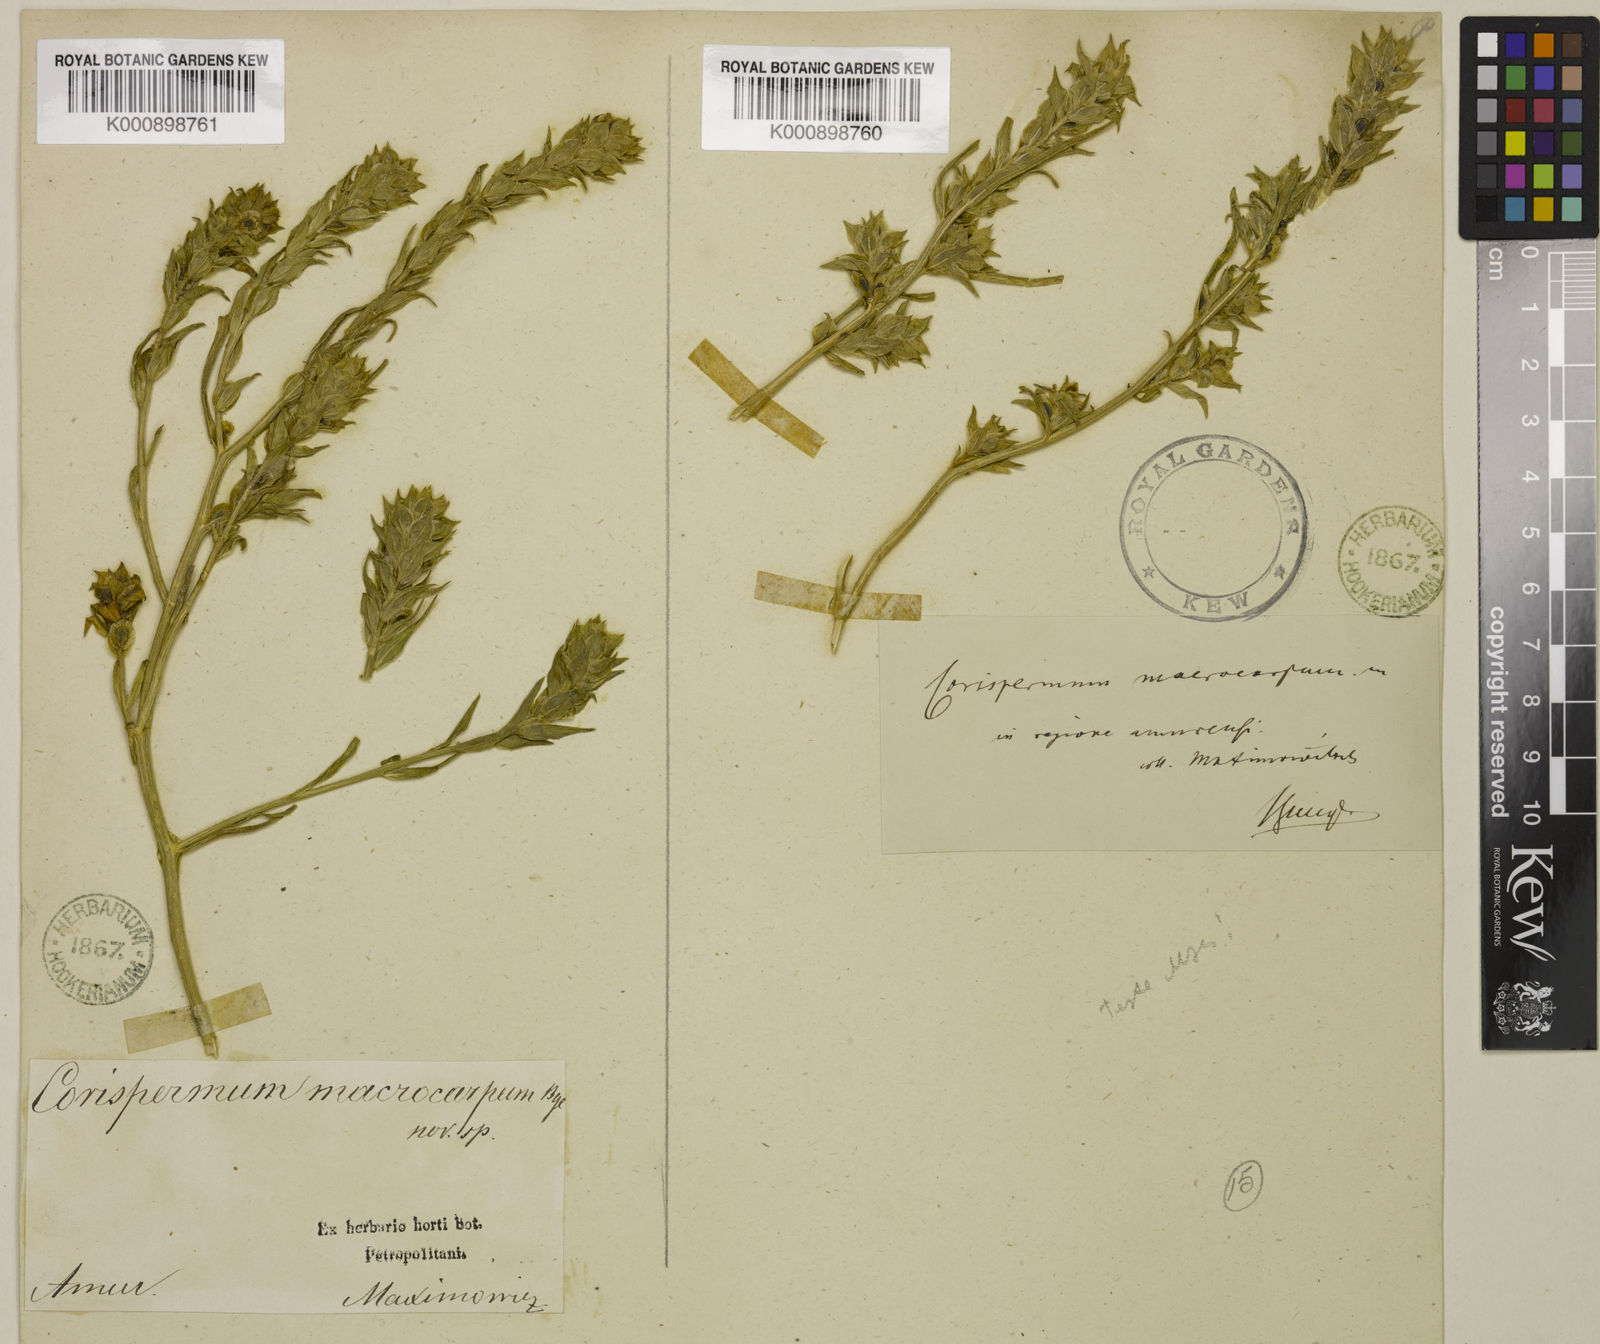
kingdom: Plantae
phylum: Tracheophyta
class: Magnoliopsida
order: Caryophyllales
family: Amaranthaceae
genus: Corispermum
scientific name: Corispermum
